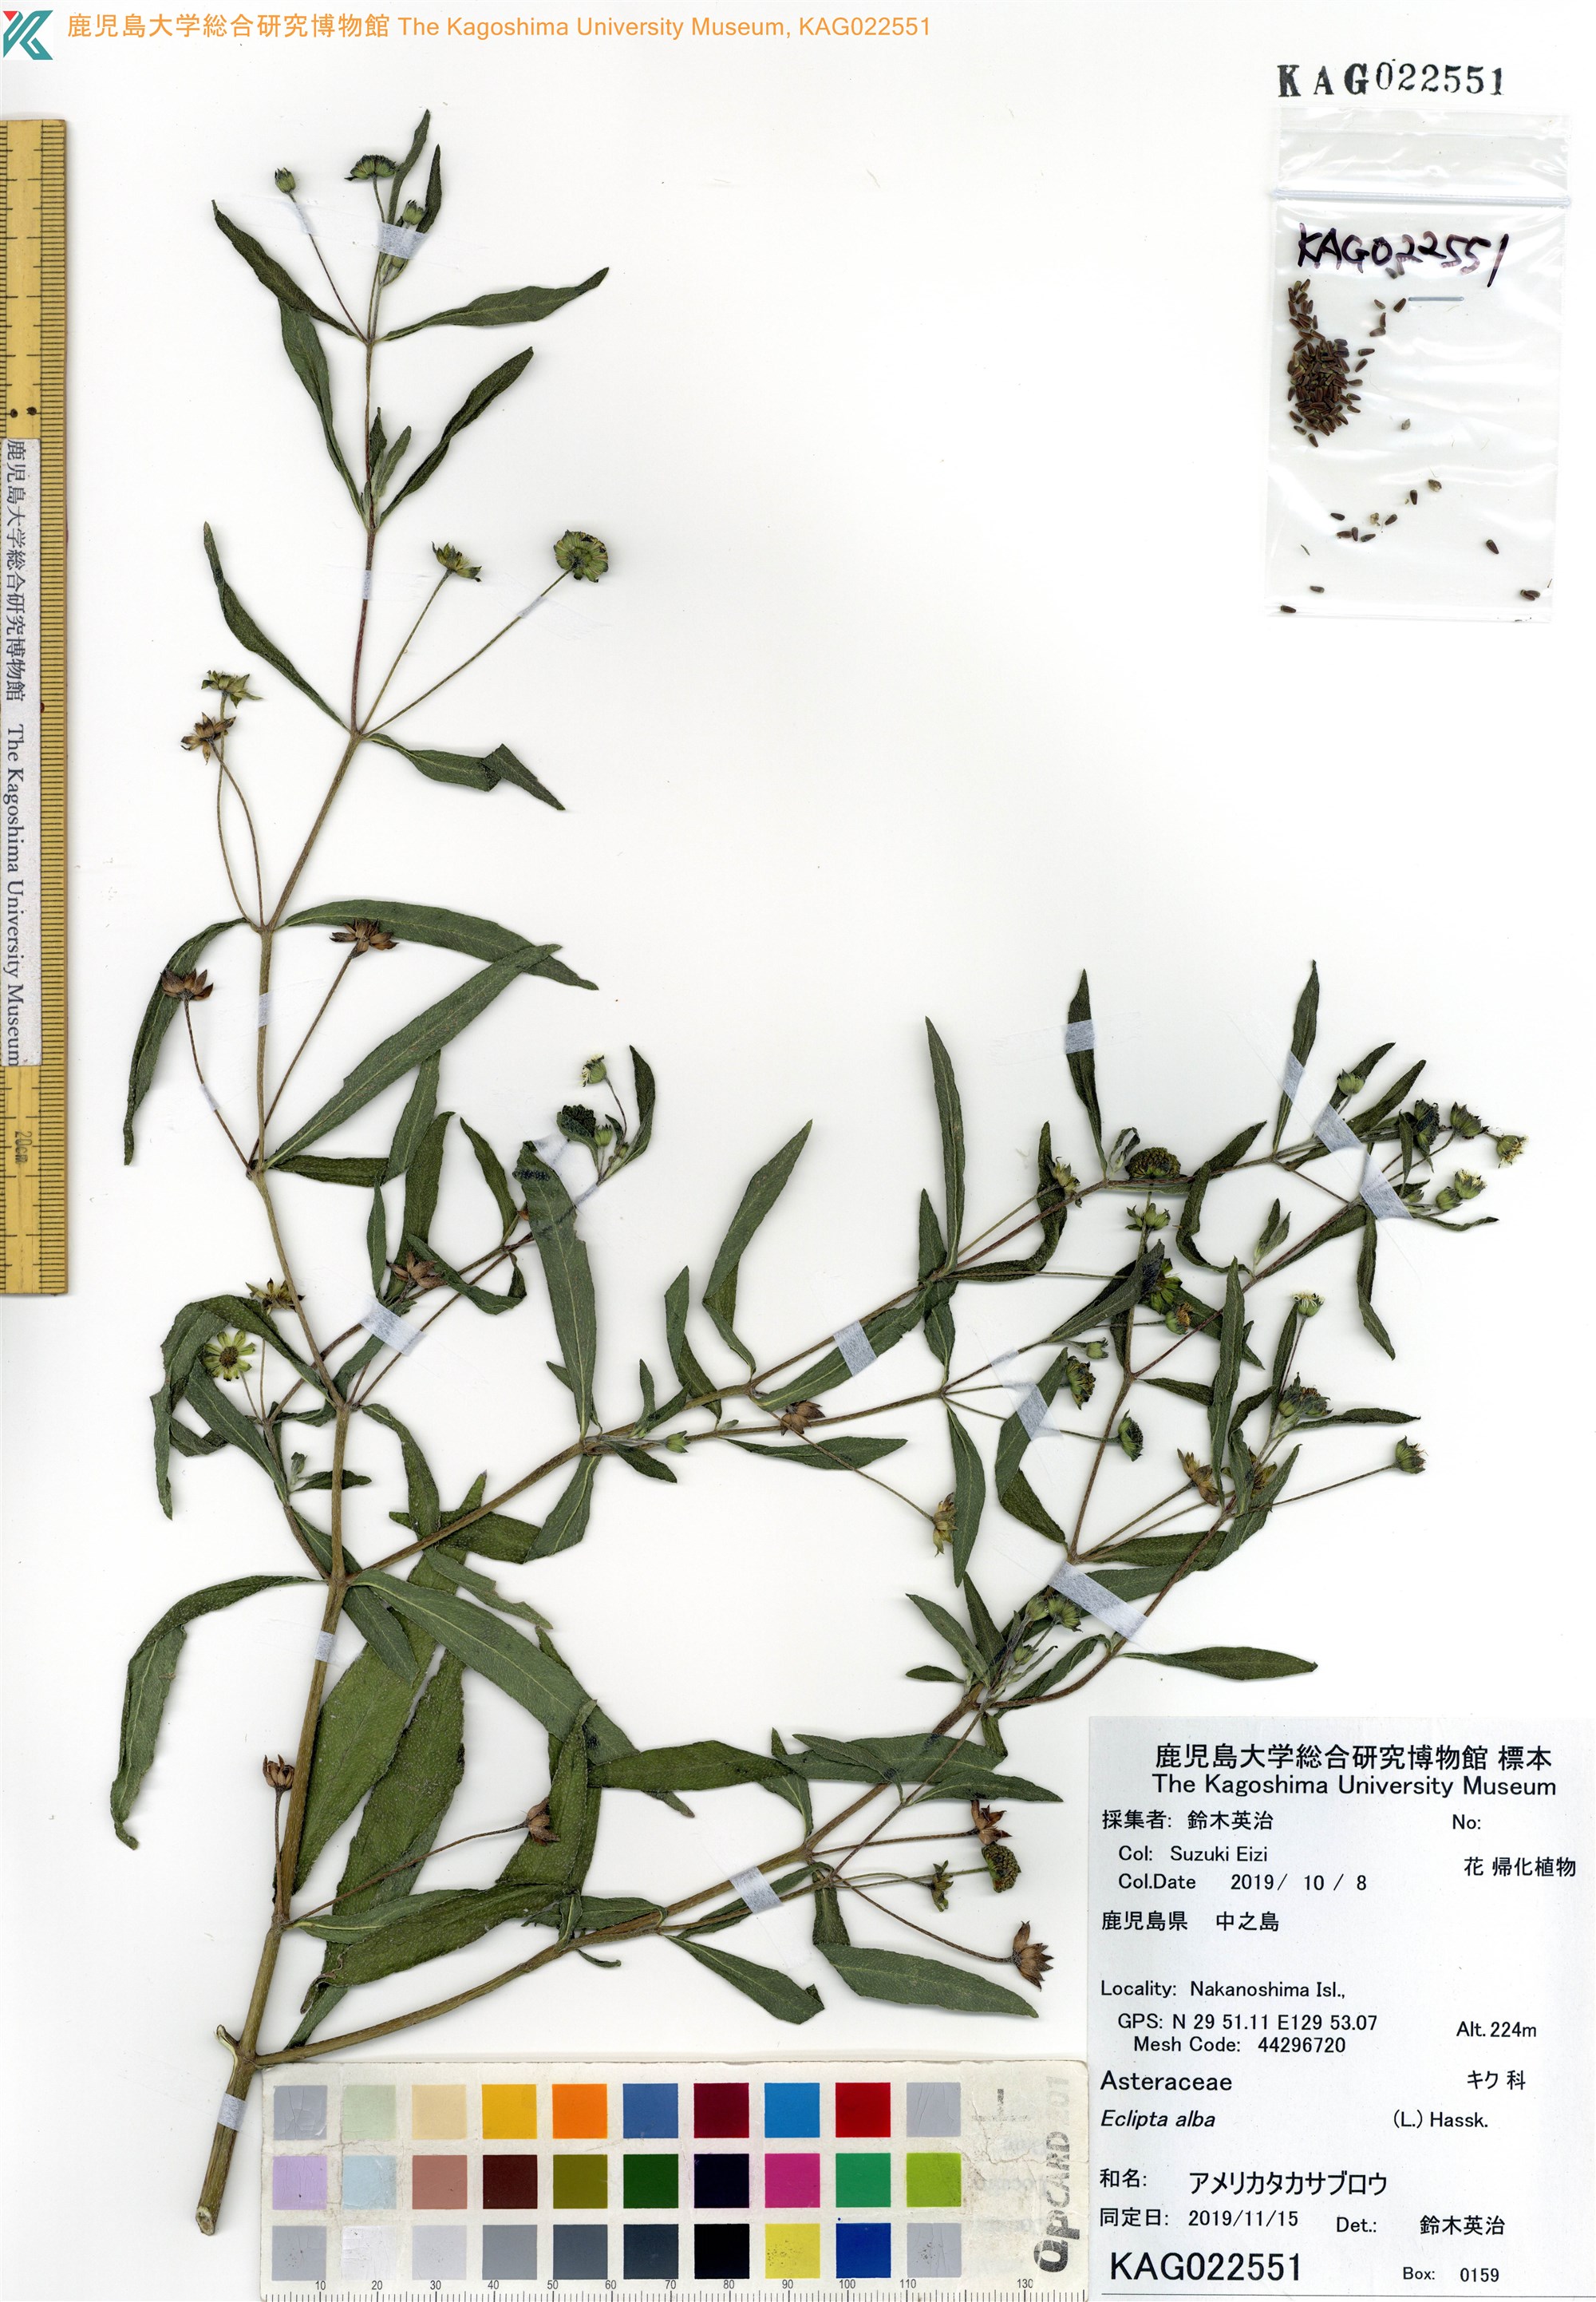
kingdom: Plantae
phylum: Tracheophyta
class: Magnoliopsida
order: Asterales
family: Asteraceae
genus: Eclipta
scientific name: Eclipta alba
